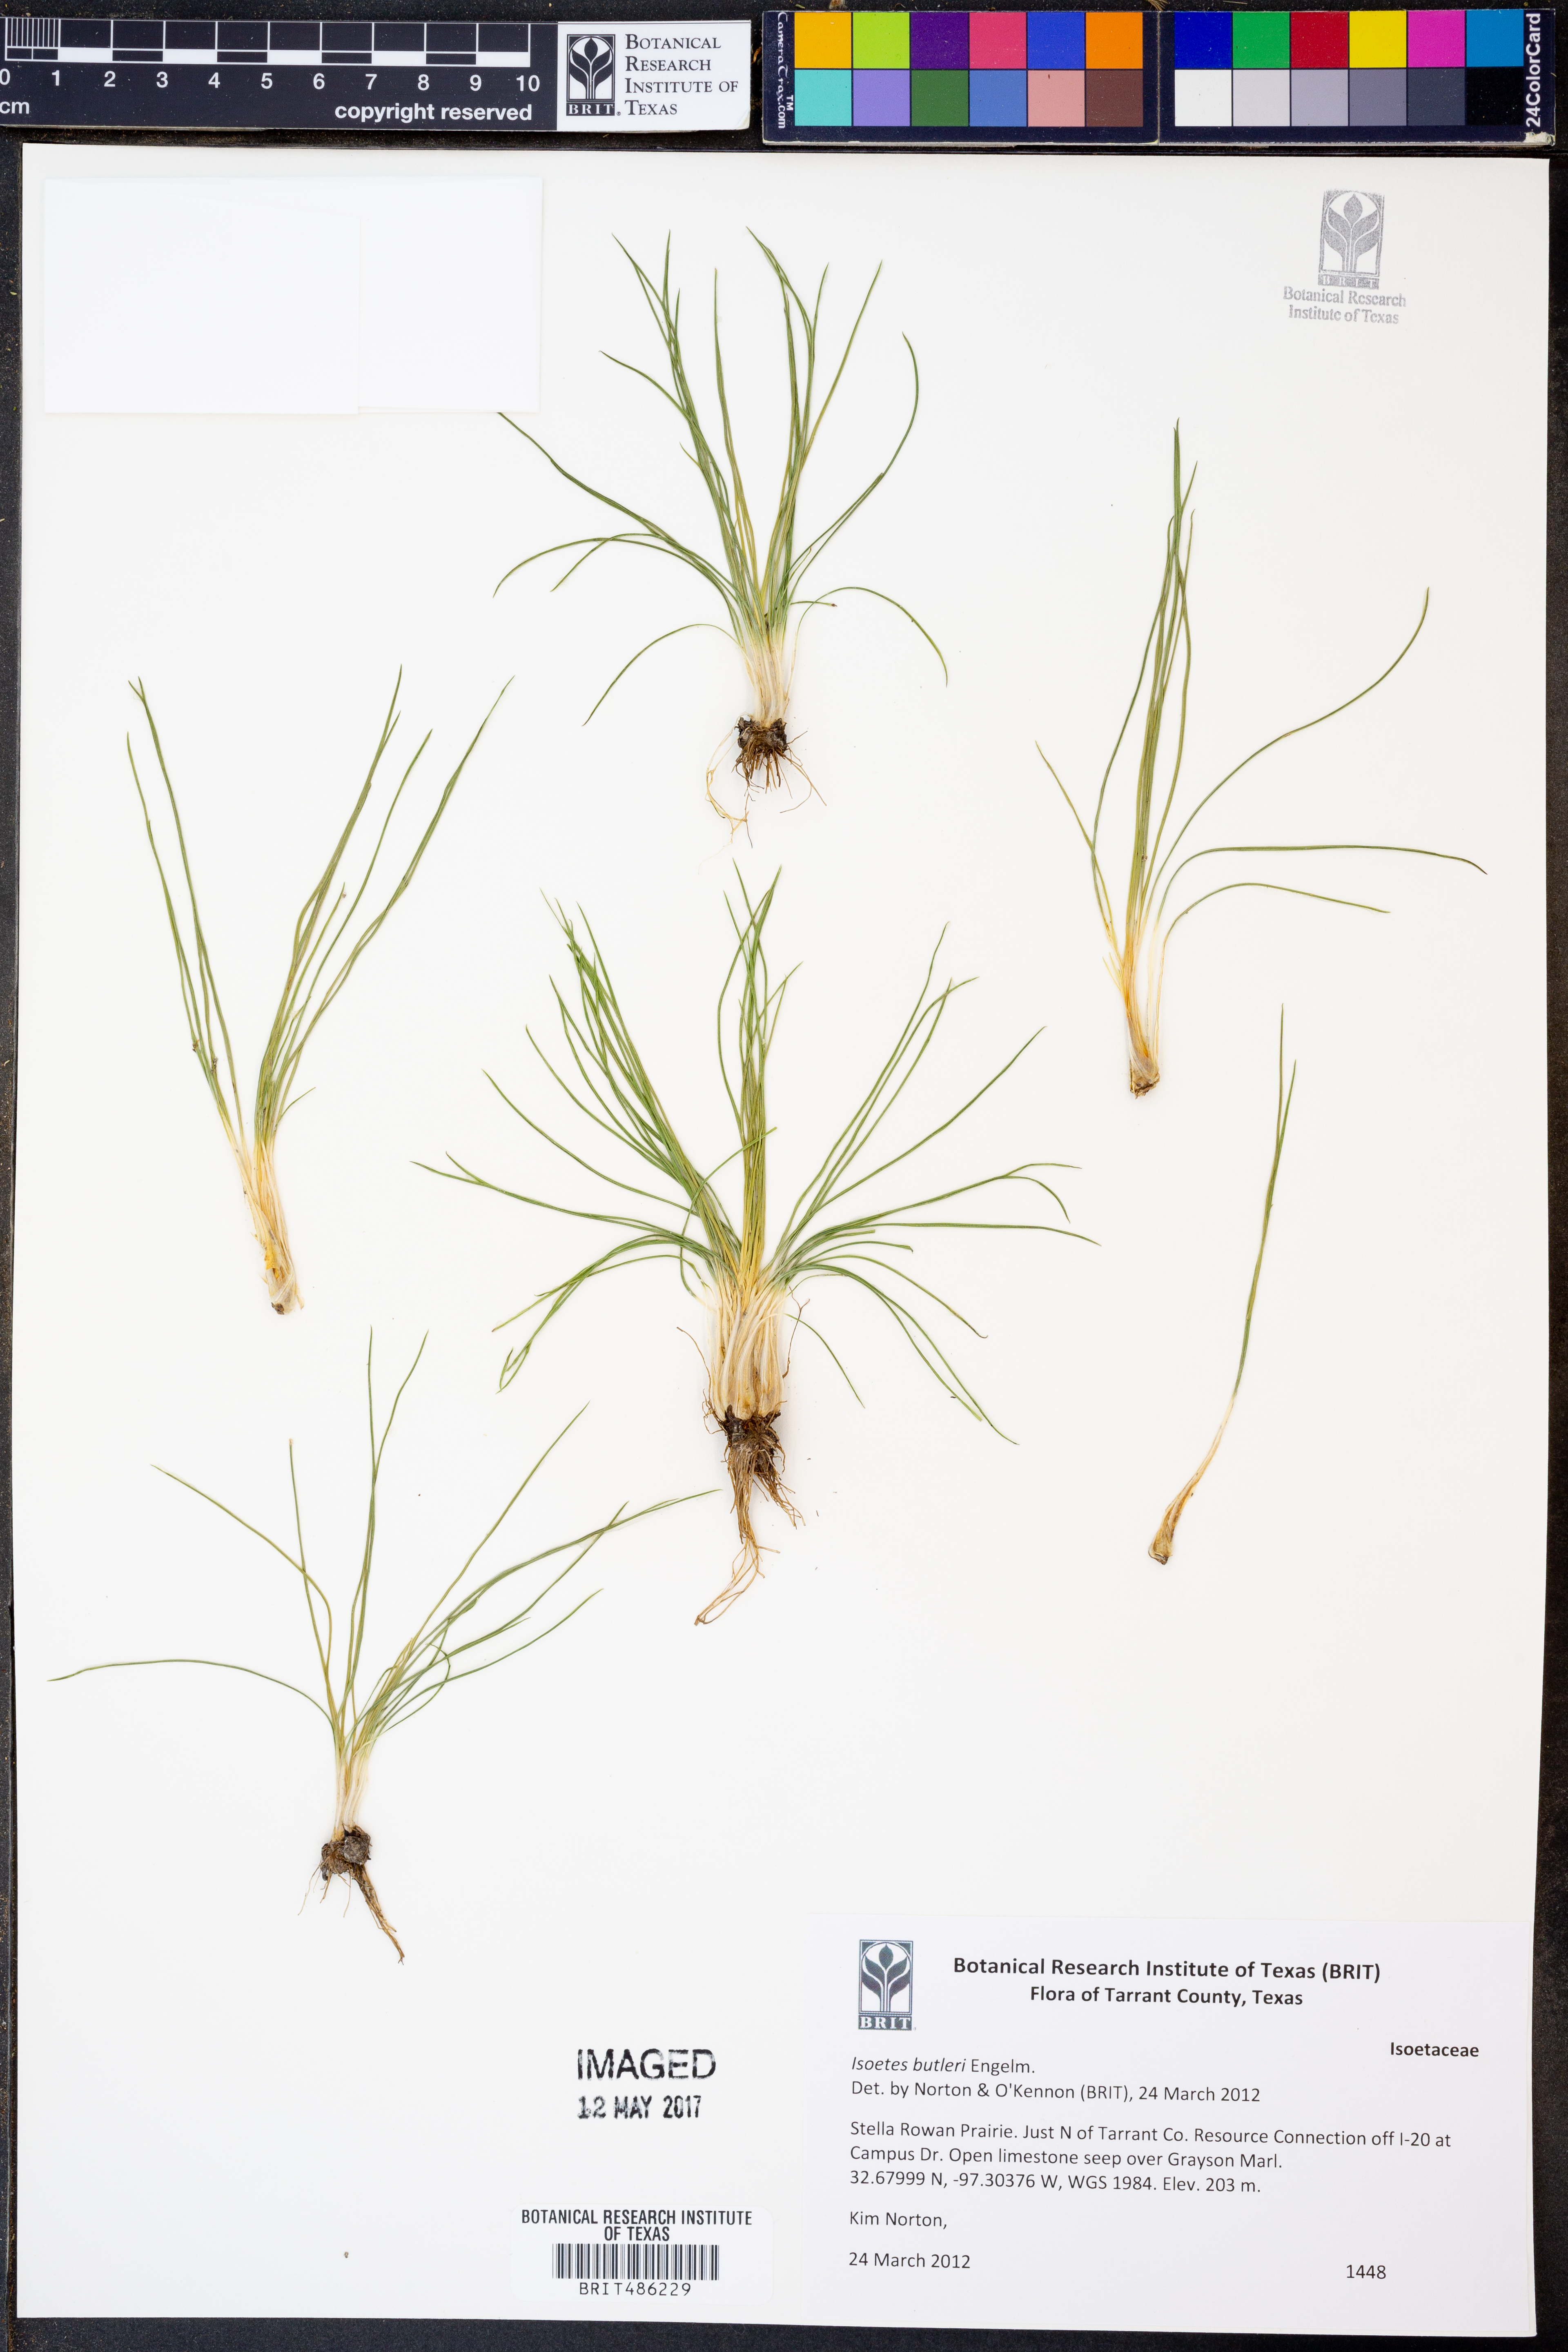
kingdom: Plantae
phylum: Tracheophyta
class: Lycopodiopsida
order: Isoetales
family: Isoetaceae
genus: Isoetes
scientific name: Isoetes butleri
